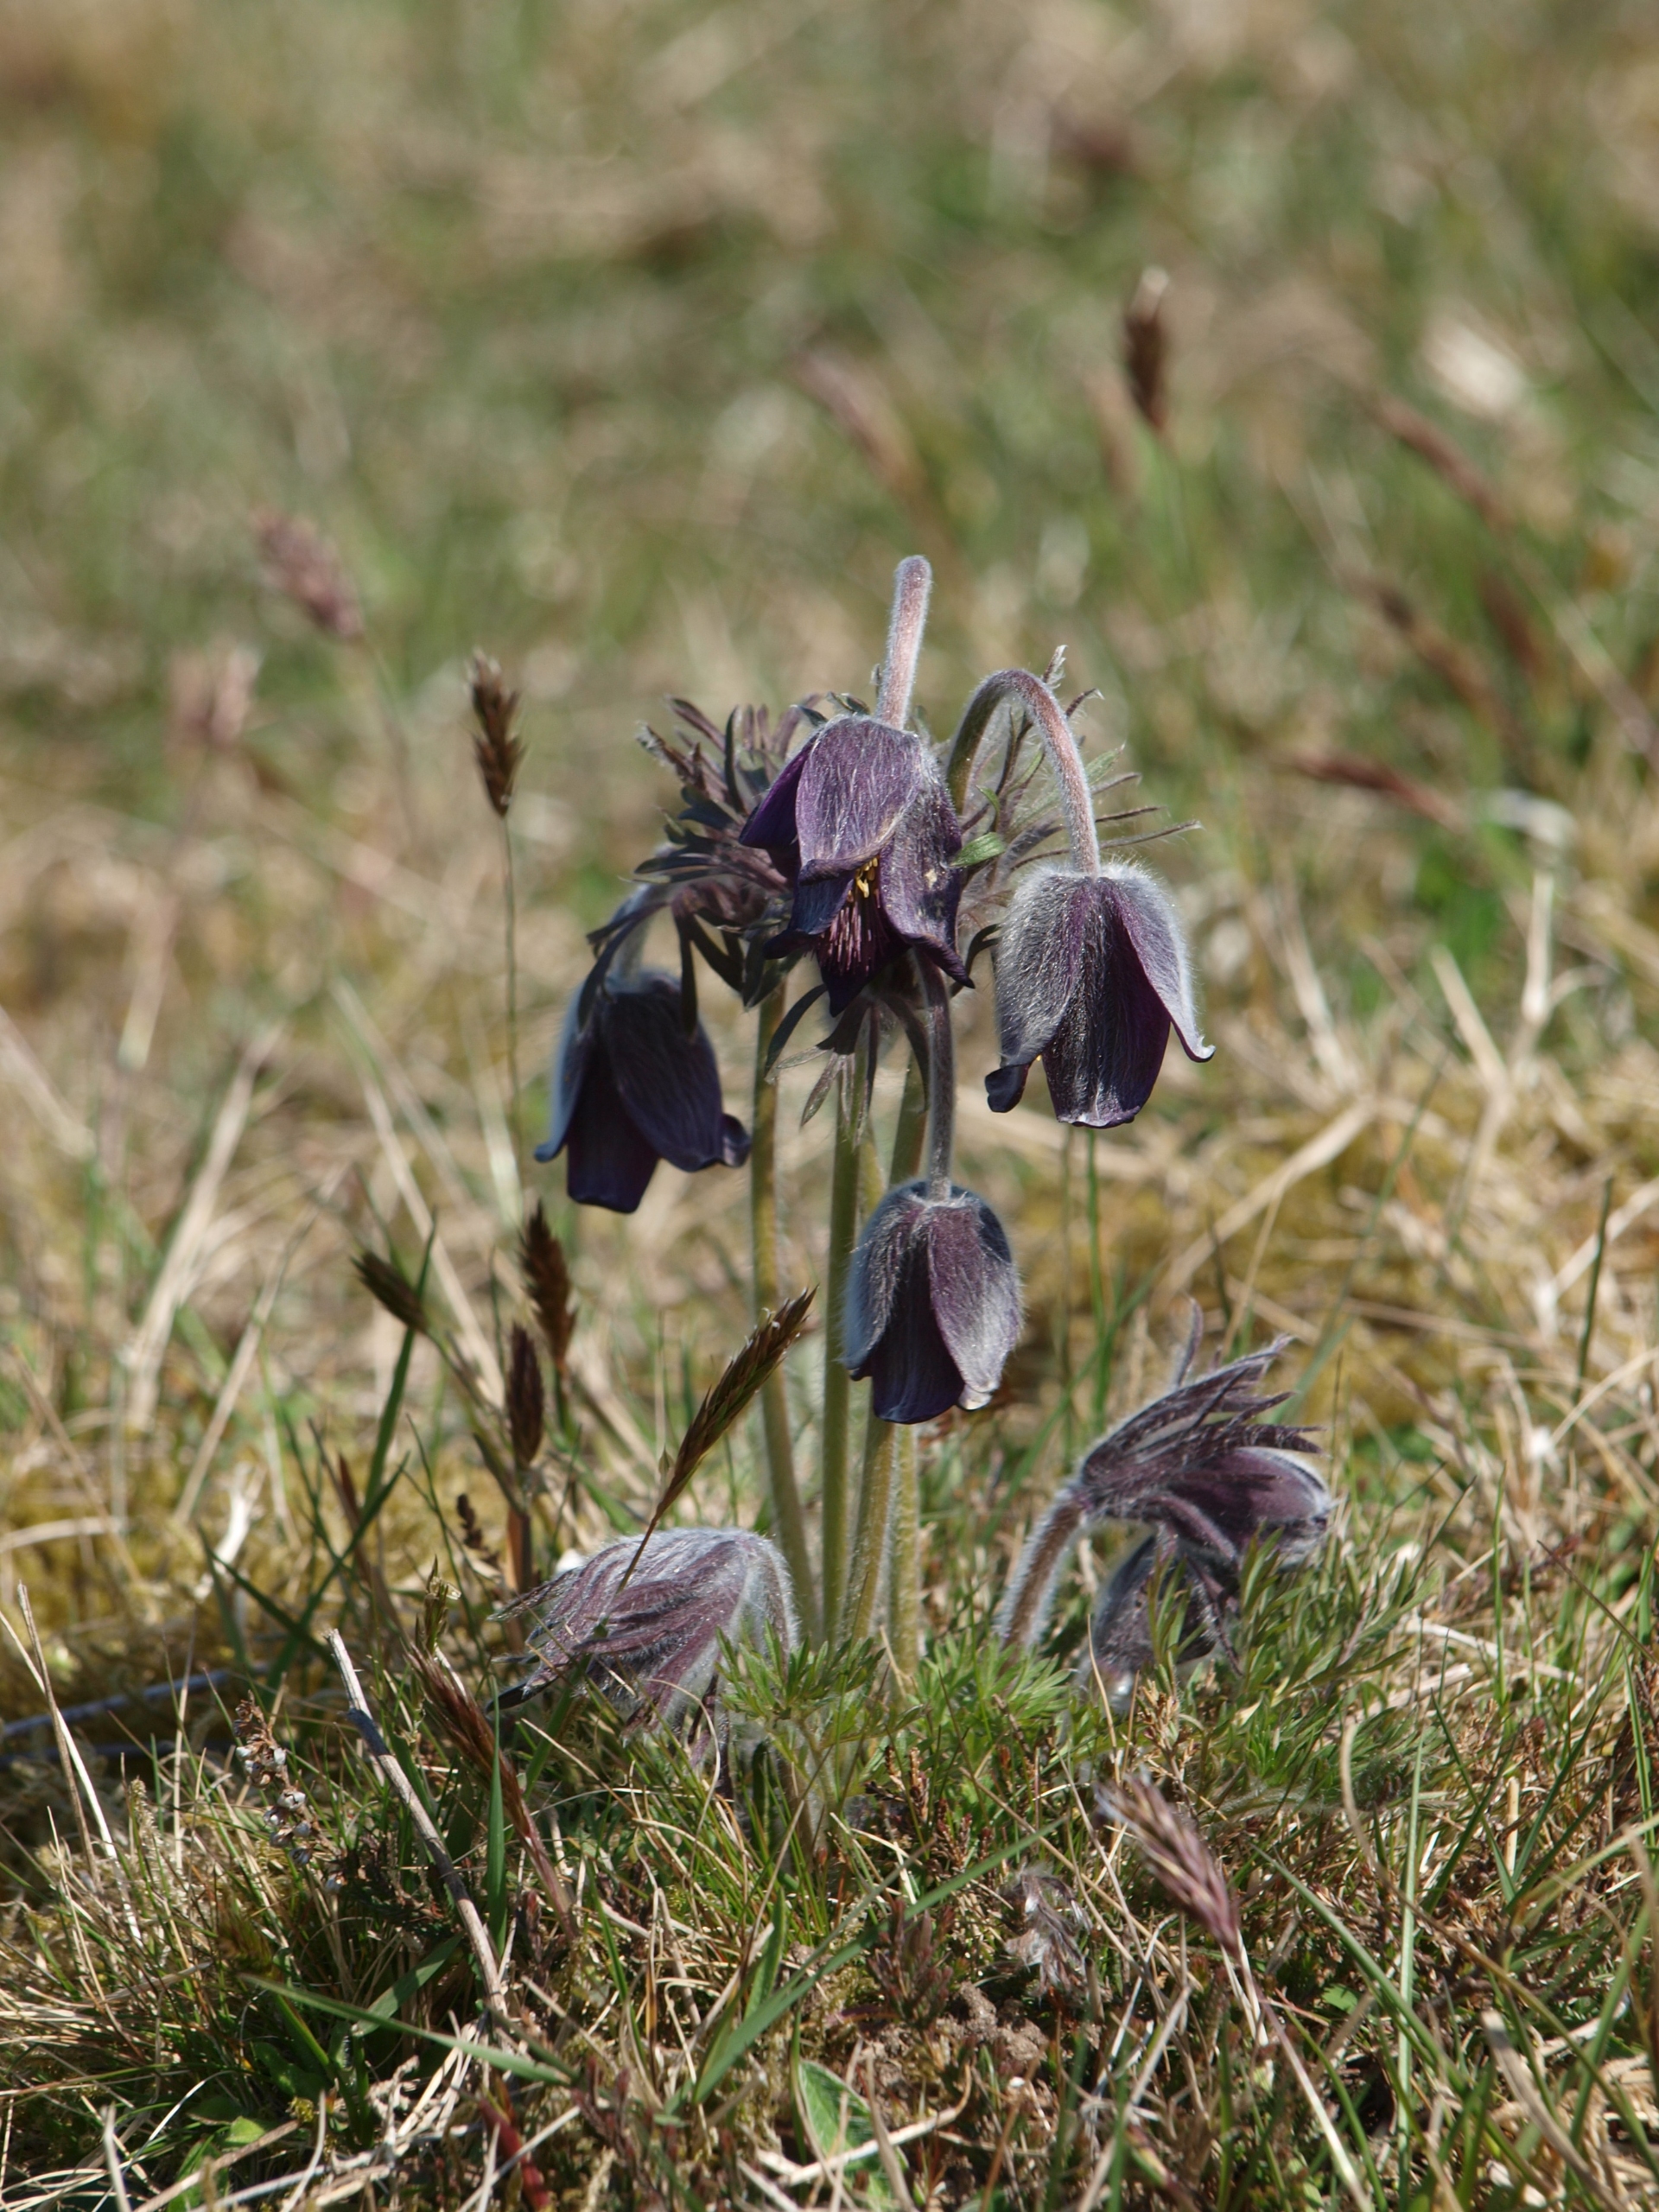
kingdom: Plantae
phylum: Tracheophyta
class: Magnoliopsida
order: Ranunculales
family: Ranunculaceae
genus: Pulsatilla
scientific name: Pulsatilla pratensis
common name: Nikkende kobjælde
